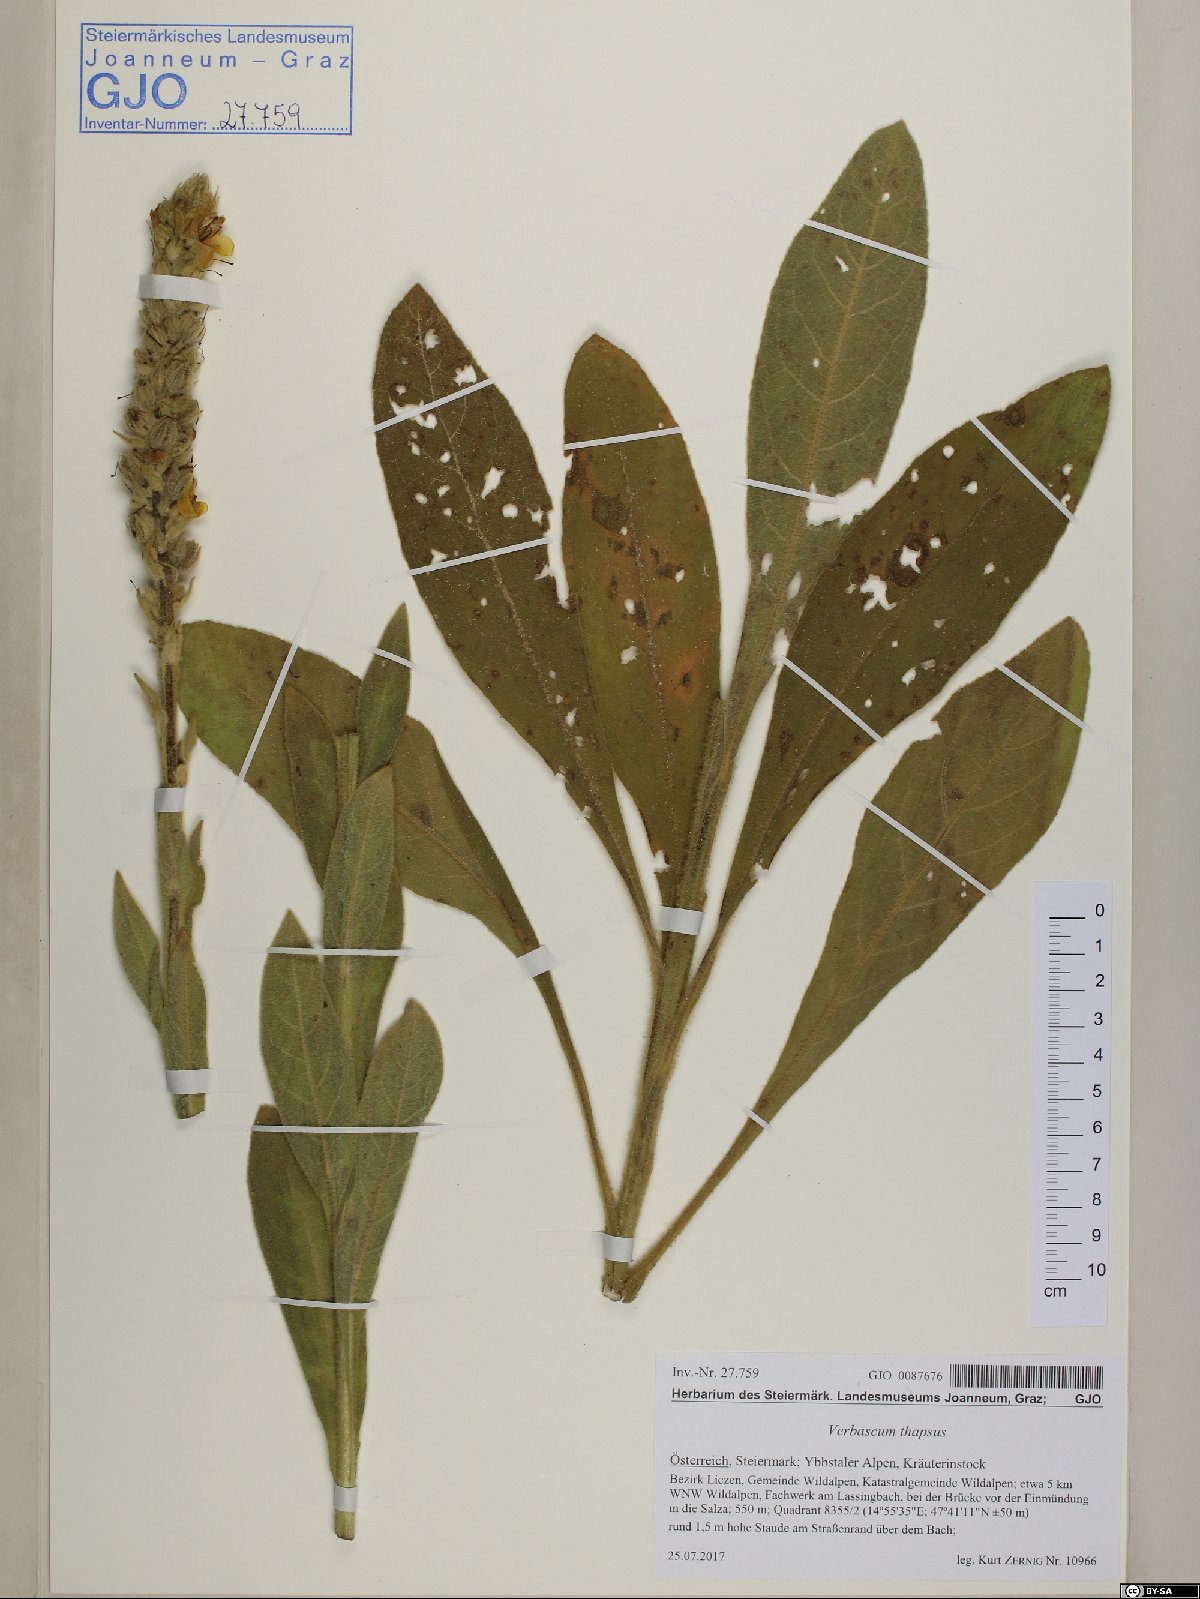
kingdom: Plantae
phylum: Tracheophyta
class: Magnoliopsida
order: Lamiales
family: Scrophulariaceae
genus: Verbascum
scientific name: Verbascum thapsus
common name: Common mullein
